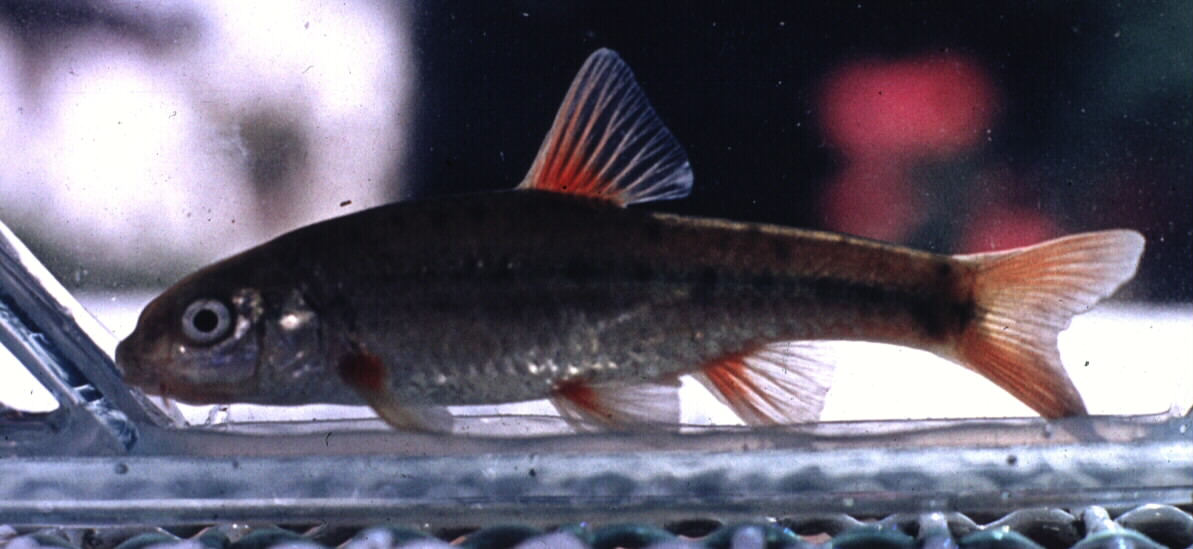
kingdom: Animalia
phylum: Chordata
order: Cypriniformes
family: Cyprinidae
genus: Pseudobarbus
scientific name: Pseudobarbus burgi
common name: Berg river redfin
